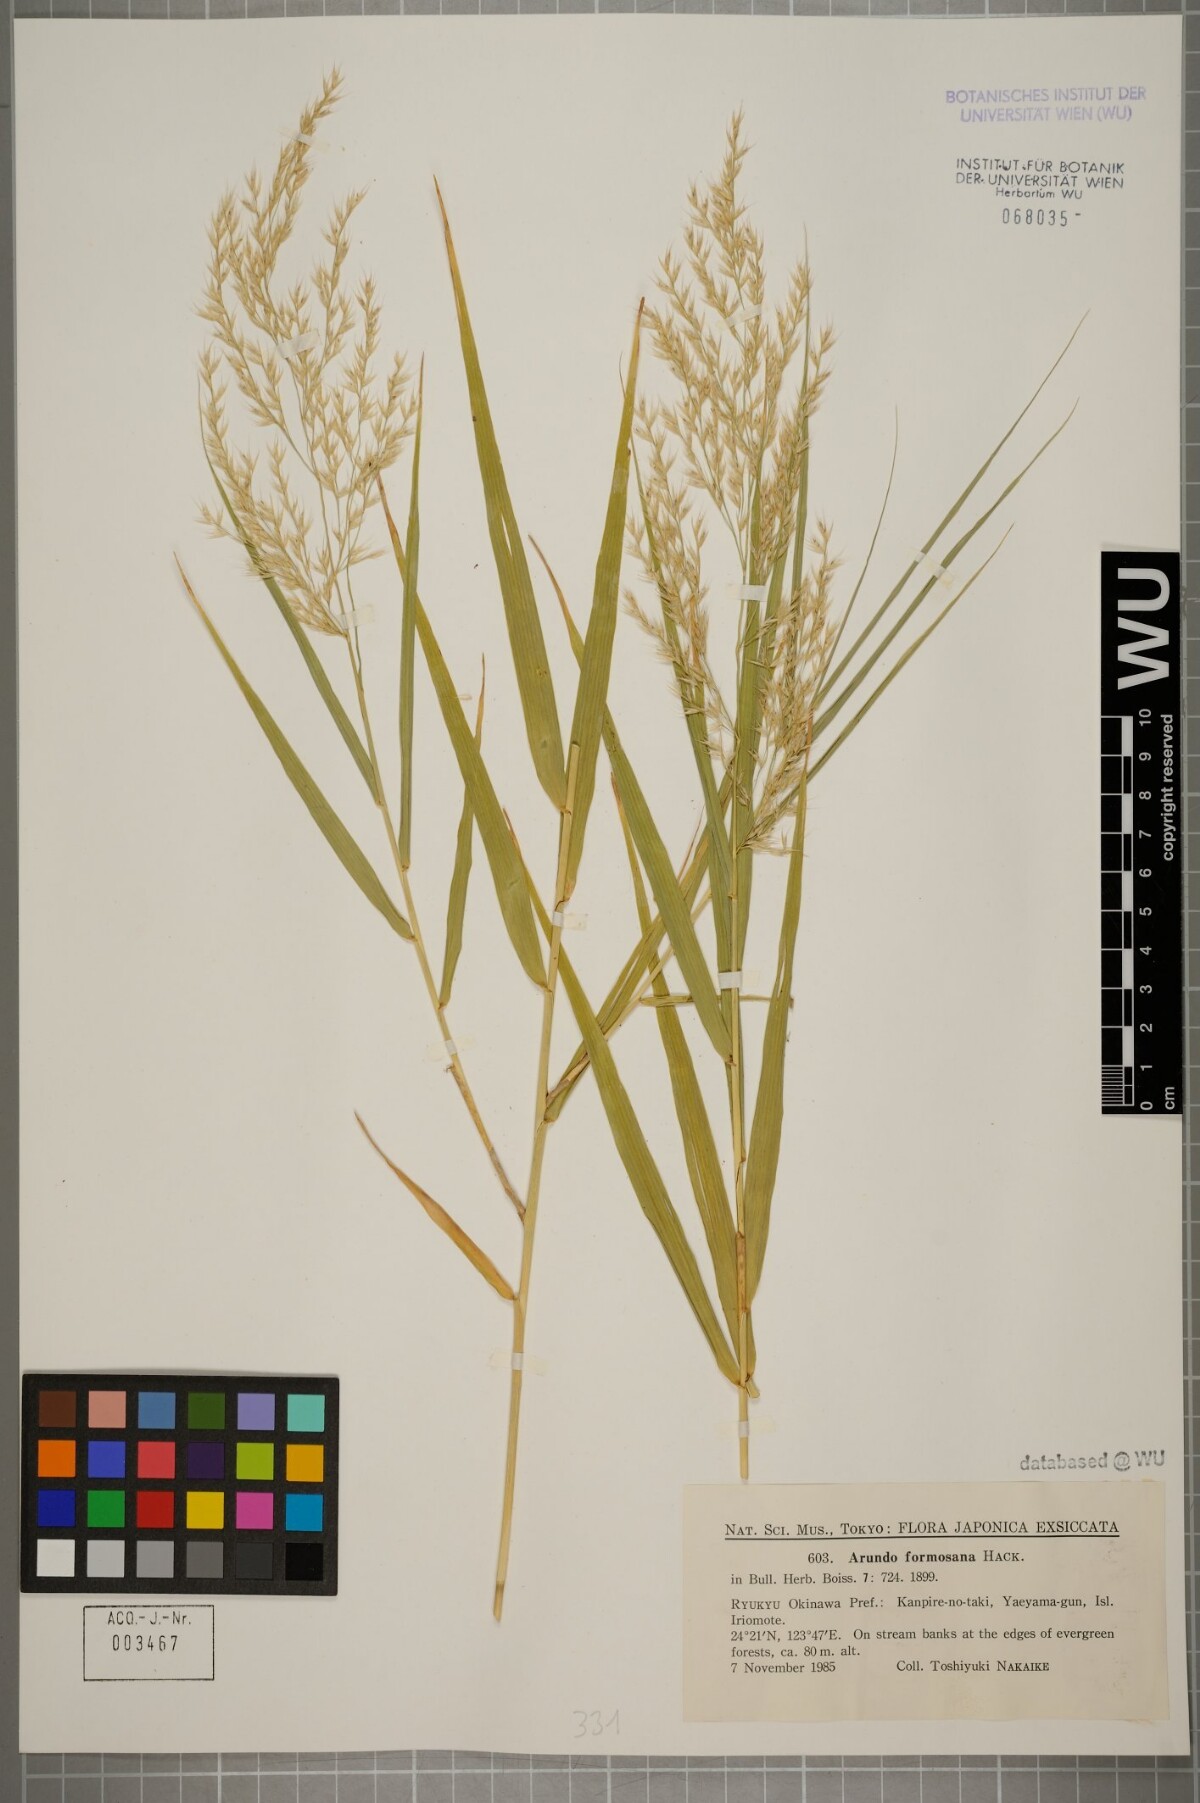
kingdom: Plantae
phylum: Tracheophyta
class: Liliopsida
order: Poales
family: Poaceae
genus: Arundo
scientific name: Arundo formosana
